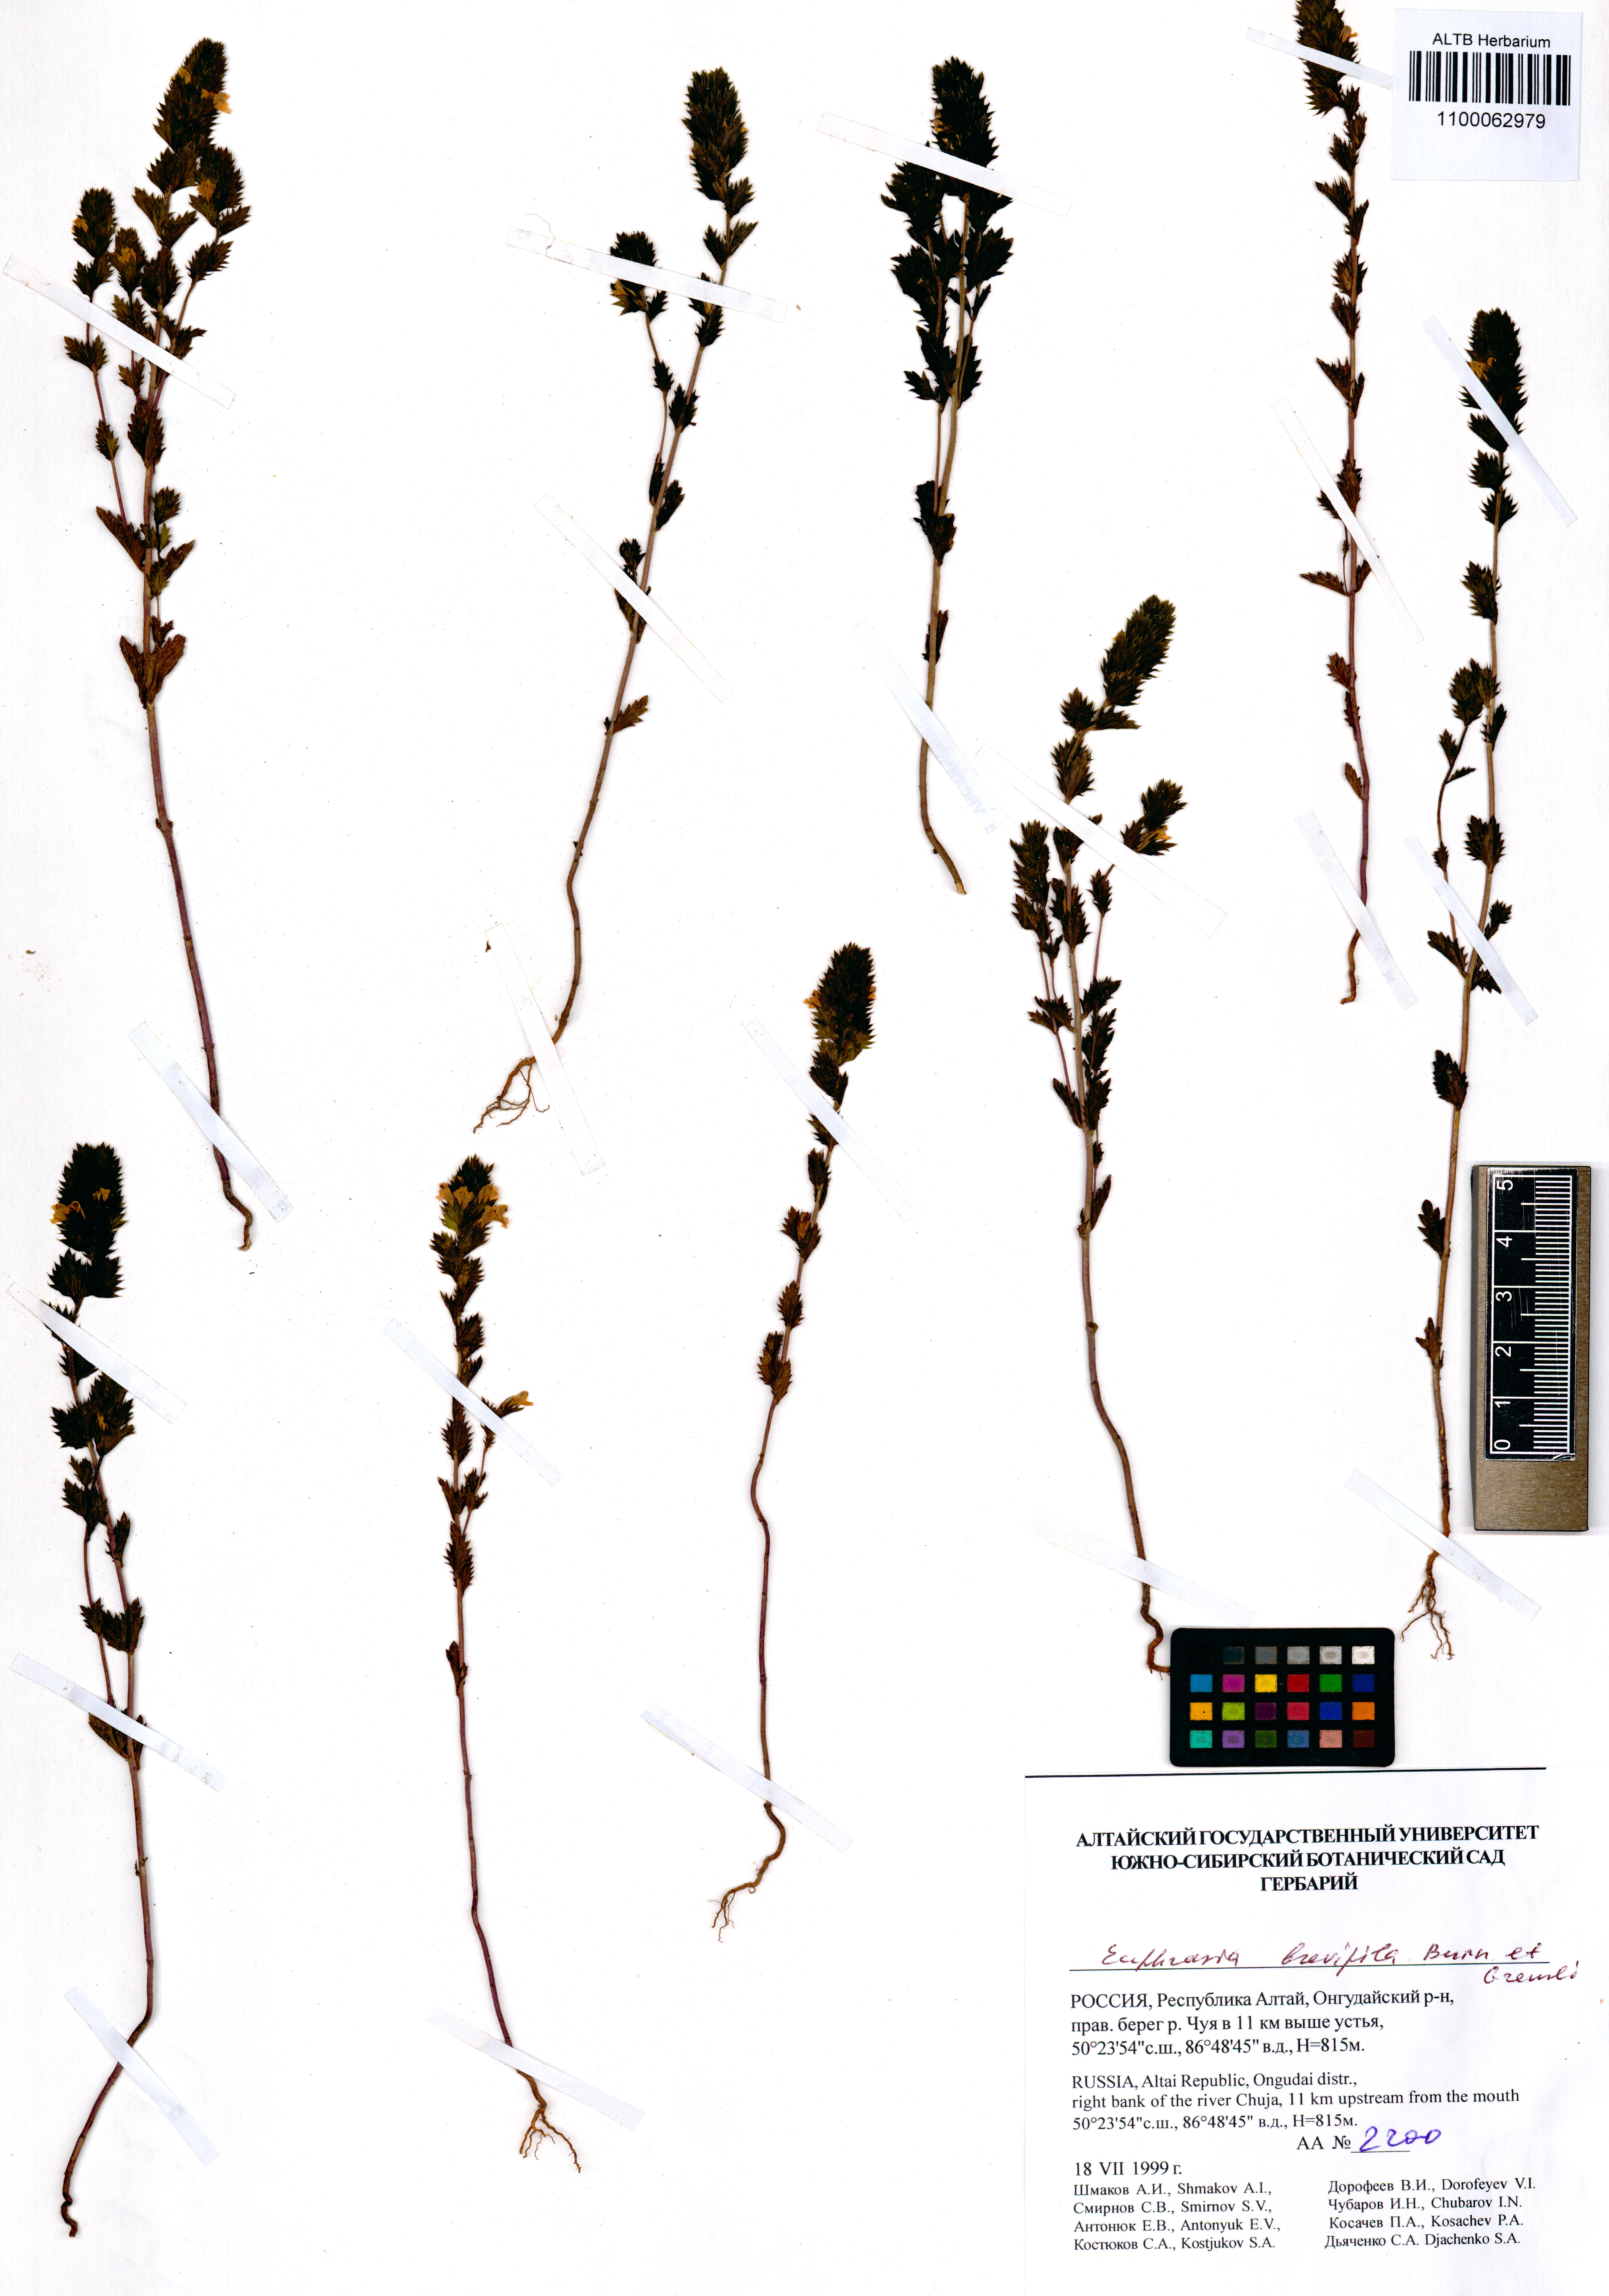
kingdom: Plantae
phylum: Tracheophyta
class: Magnoliopsida
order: Lamiales
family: Orobanchaceae
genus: Euphrasia
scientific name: Euphrasia vernalis
